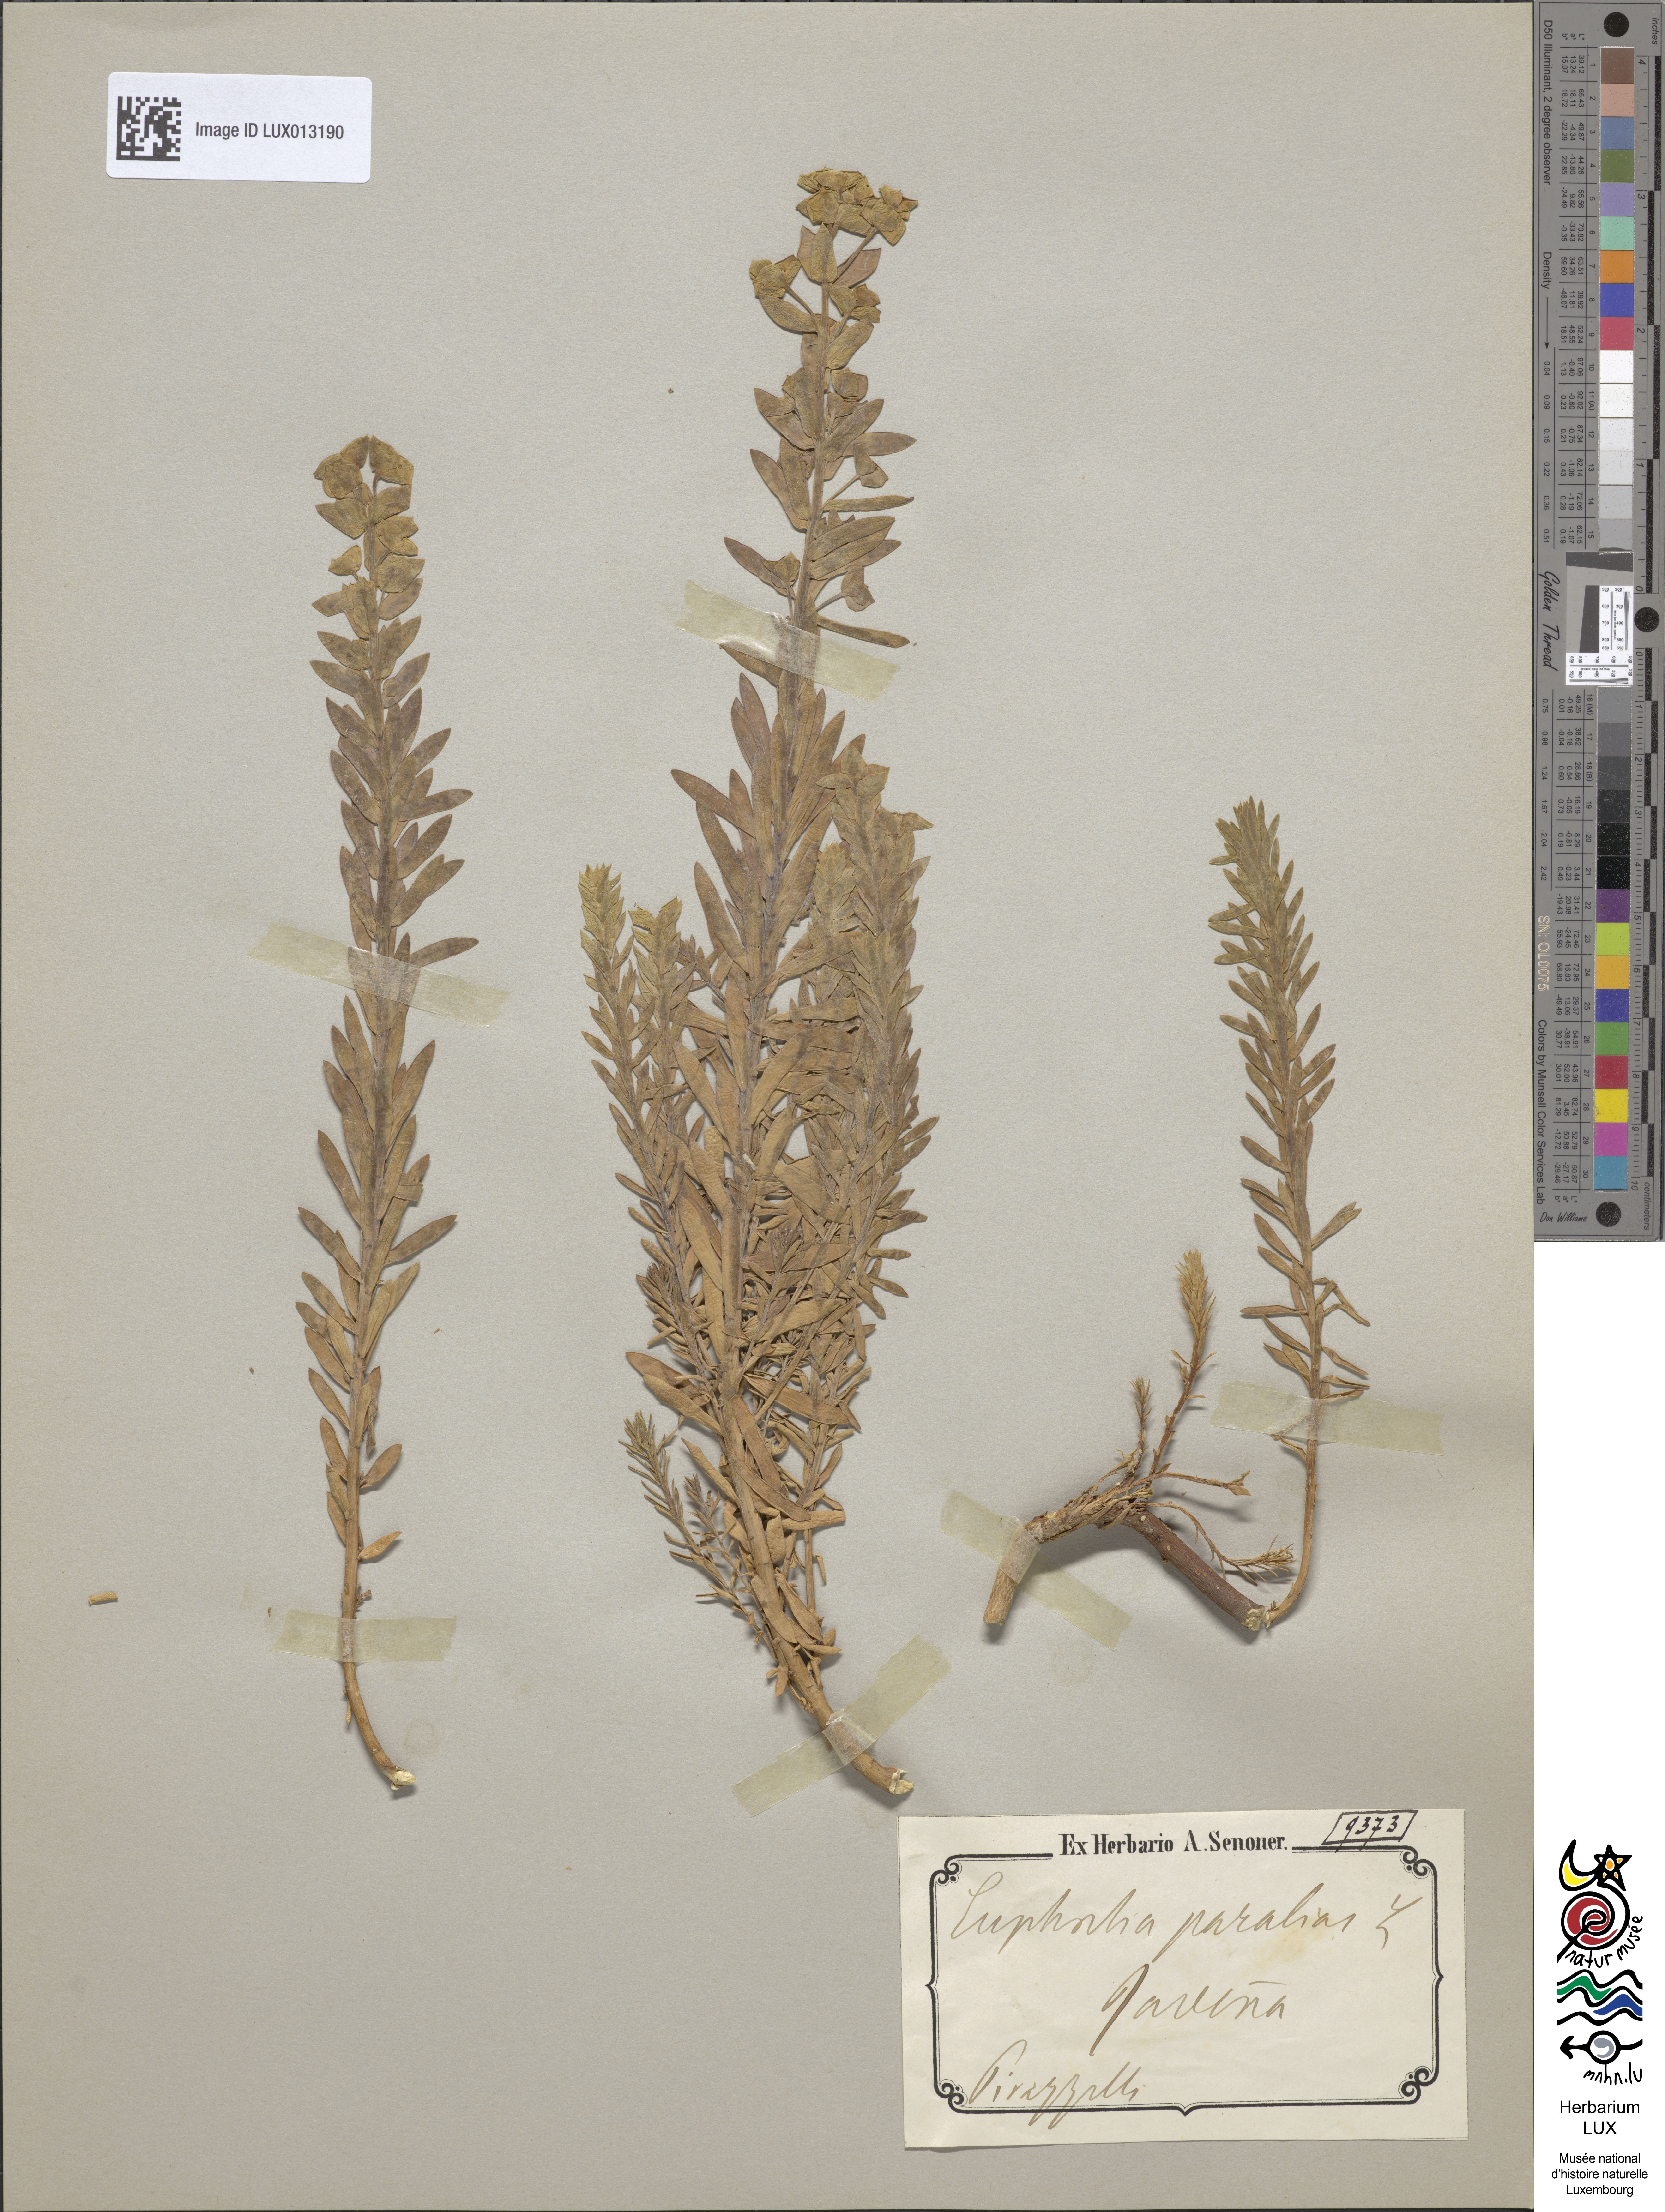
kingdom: Plantae
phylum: Tracheophyta
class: Magnoliopsida
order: Malpighiales
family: Euphorbiaceae
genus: Euphorbia
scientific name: Euphorbia paralias
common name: Sea spurge
